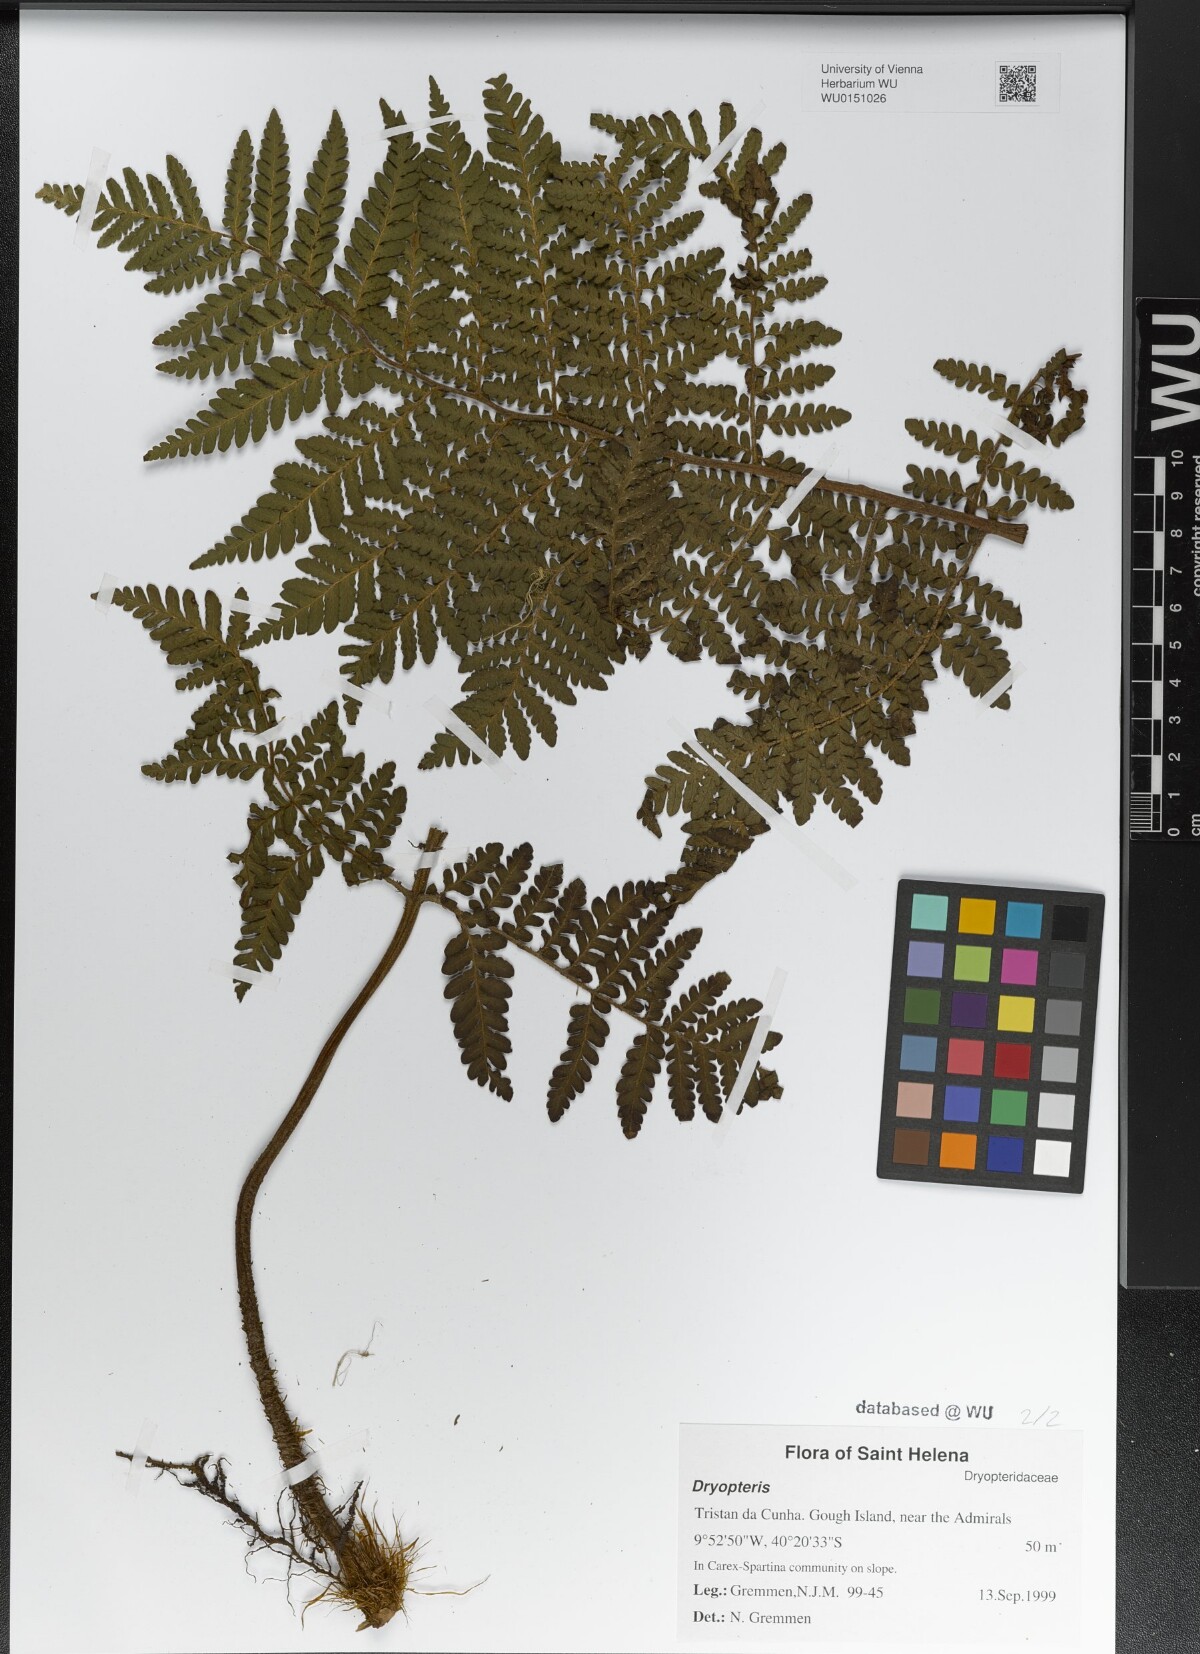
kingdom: Plantae
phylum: Tracheophyta
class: Polypodiopsida
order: Polypodiales
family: Dryopteridaceae
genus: Dryopteris
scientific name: Dryopteris
